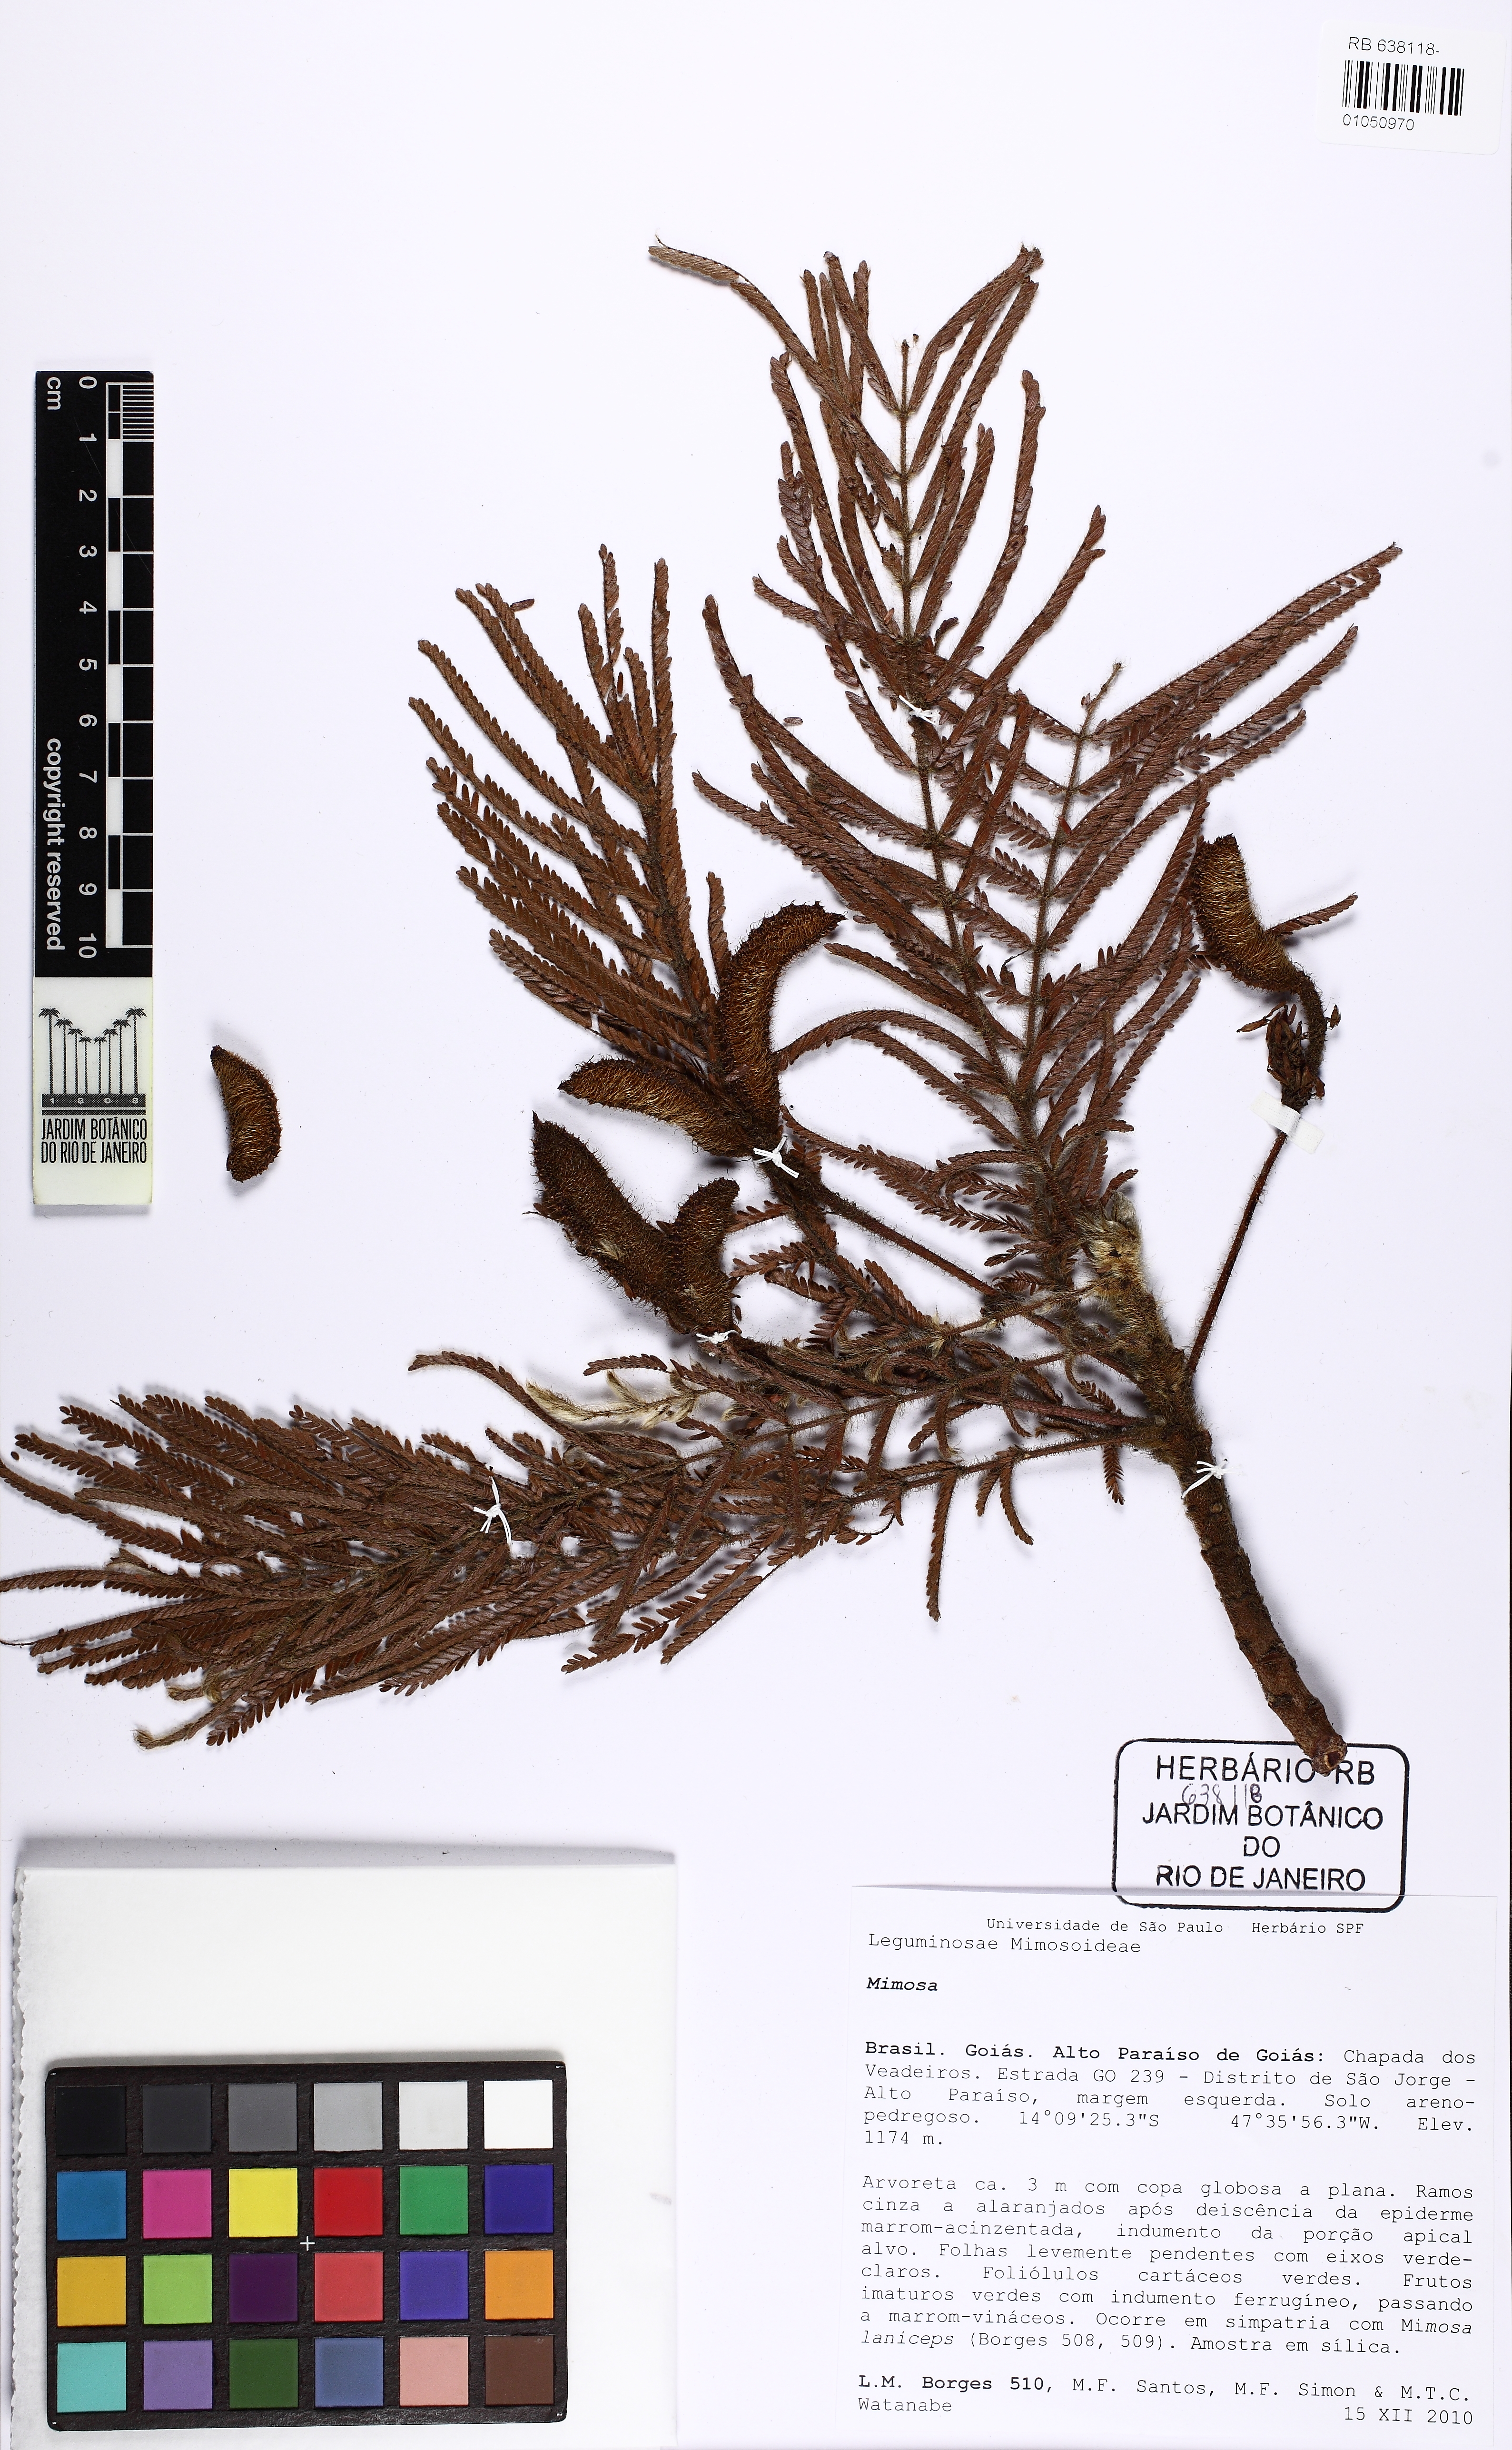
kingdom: Plantae
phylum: Tracheophyta
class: Magnoliopsida
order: Fabales
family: Fabaceae
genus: Mimosa
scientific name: Mimosa
